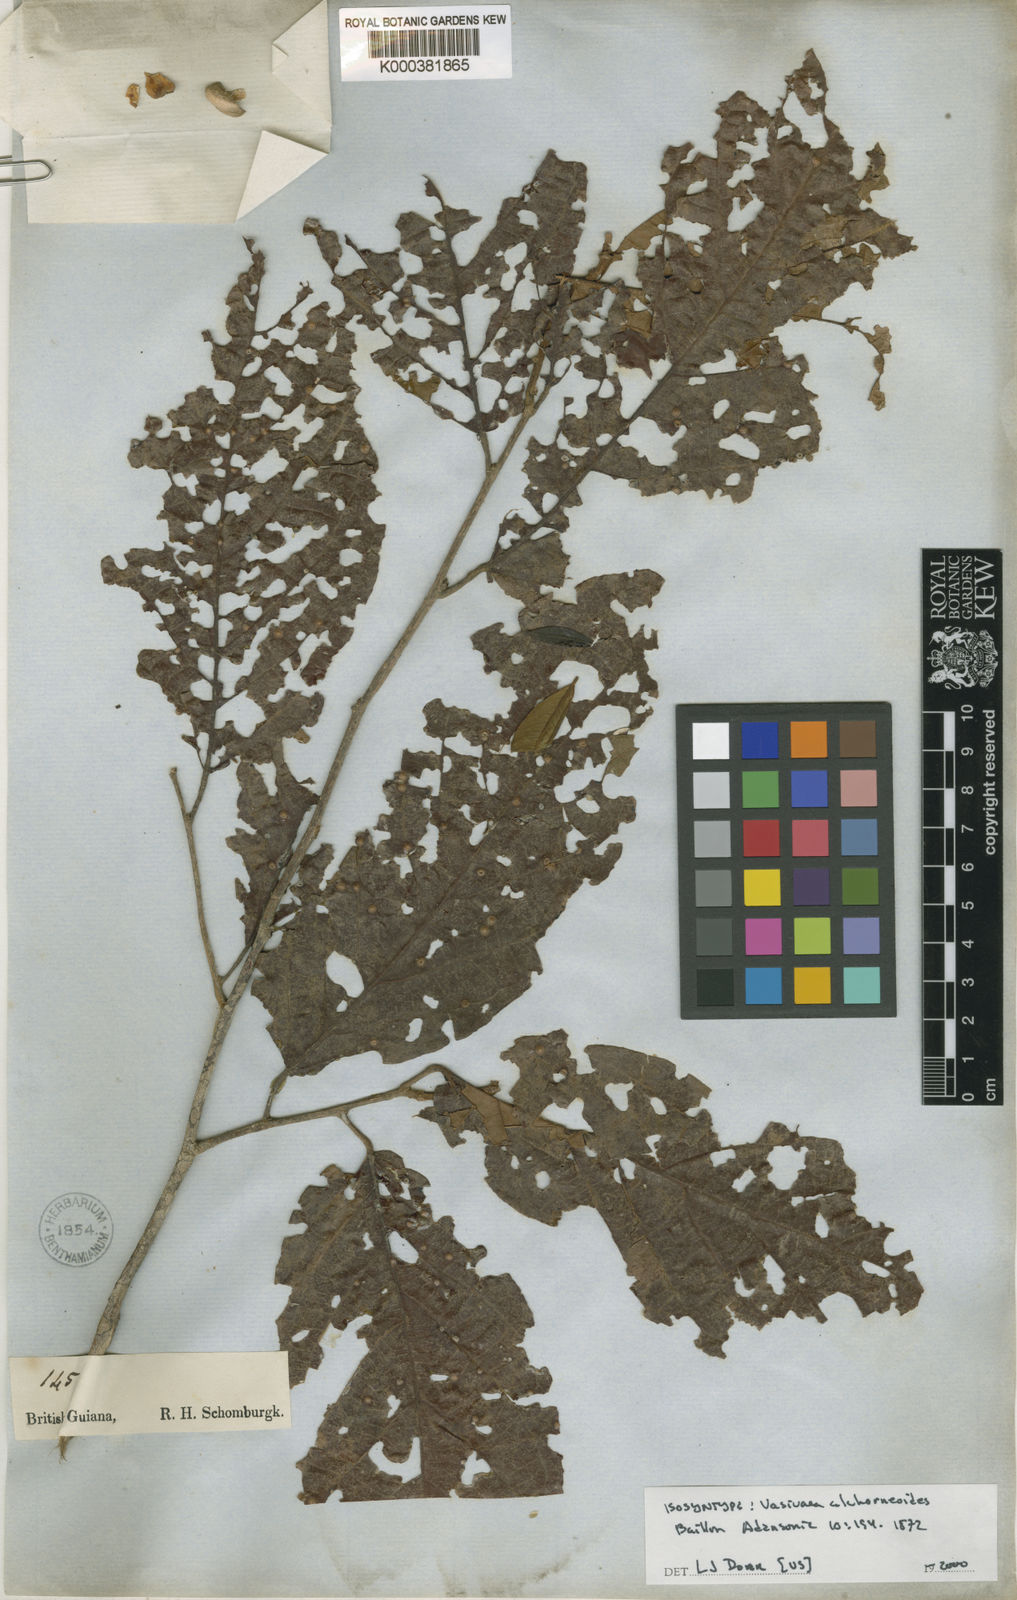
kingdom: Plantae
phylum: Tracheophyta
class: Magnoliopsida
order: Malvales
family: Malvaceae
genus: Vasivaea
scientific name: Vasivaea alchorneoides
